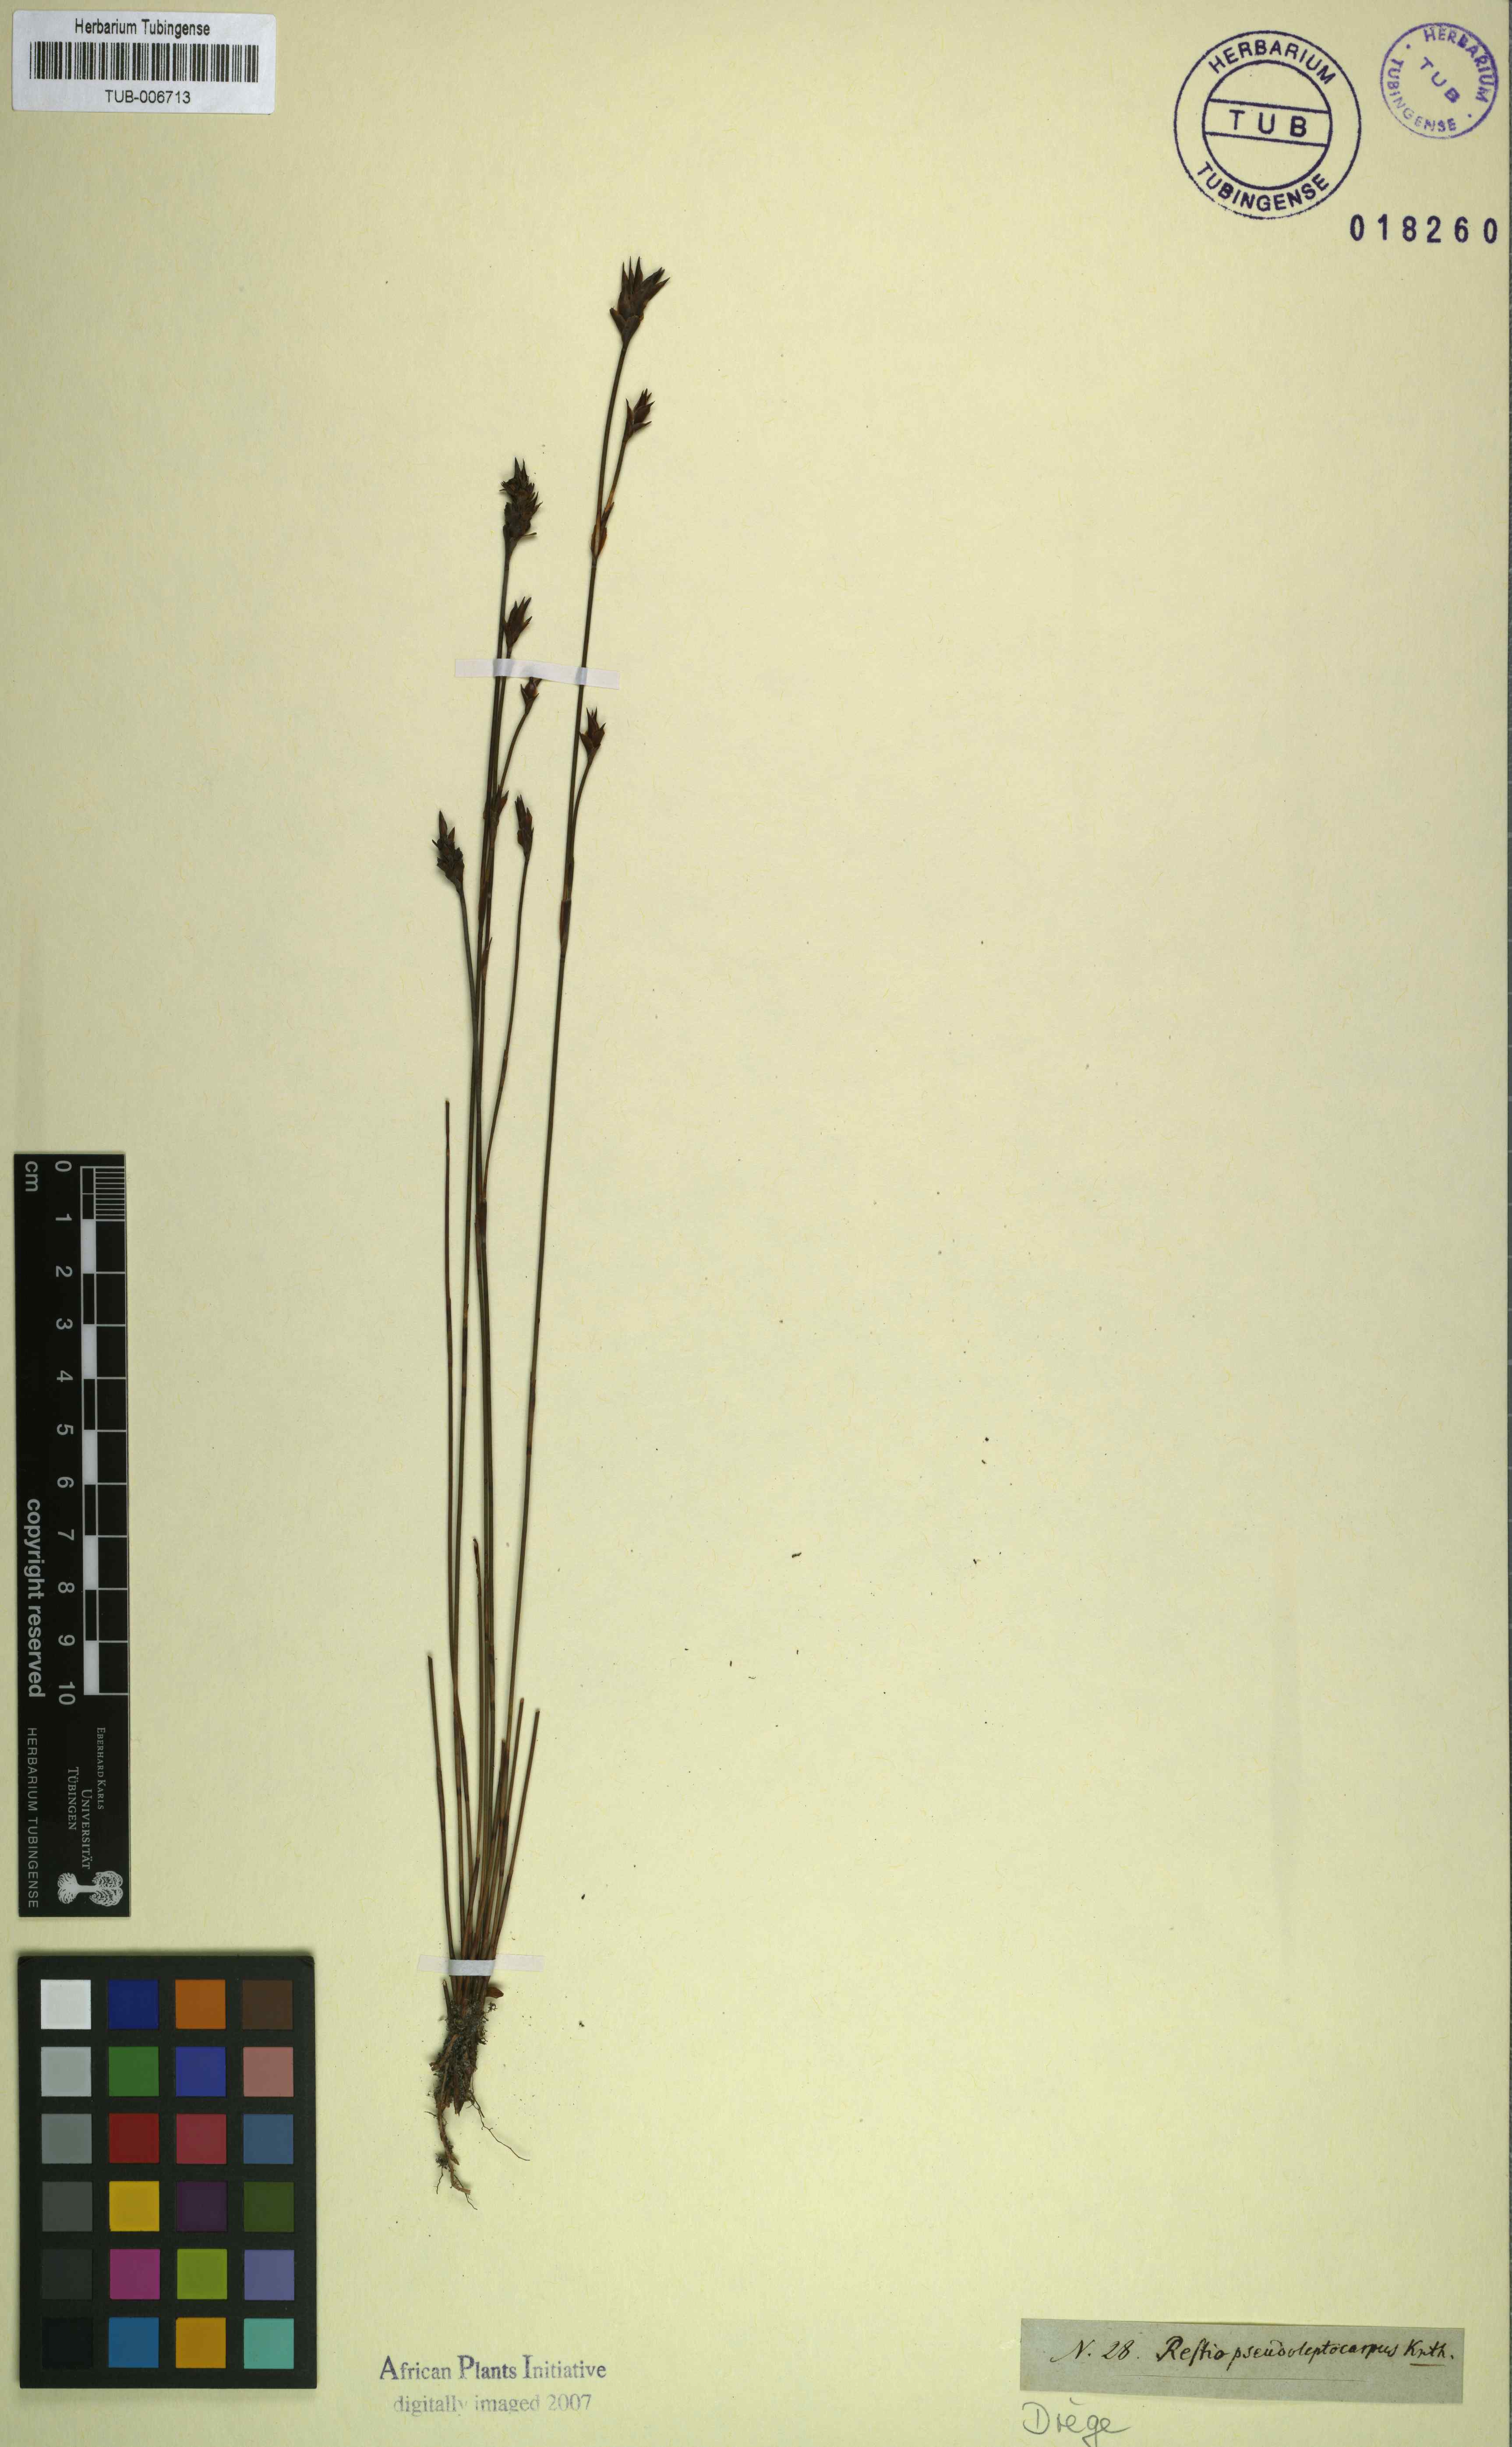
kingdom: Plantae
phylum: Tracheophyta
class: Liliopsida
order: Poales
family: Restionaceae
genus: Restio
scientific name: Restio bifidus
